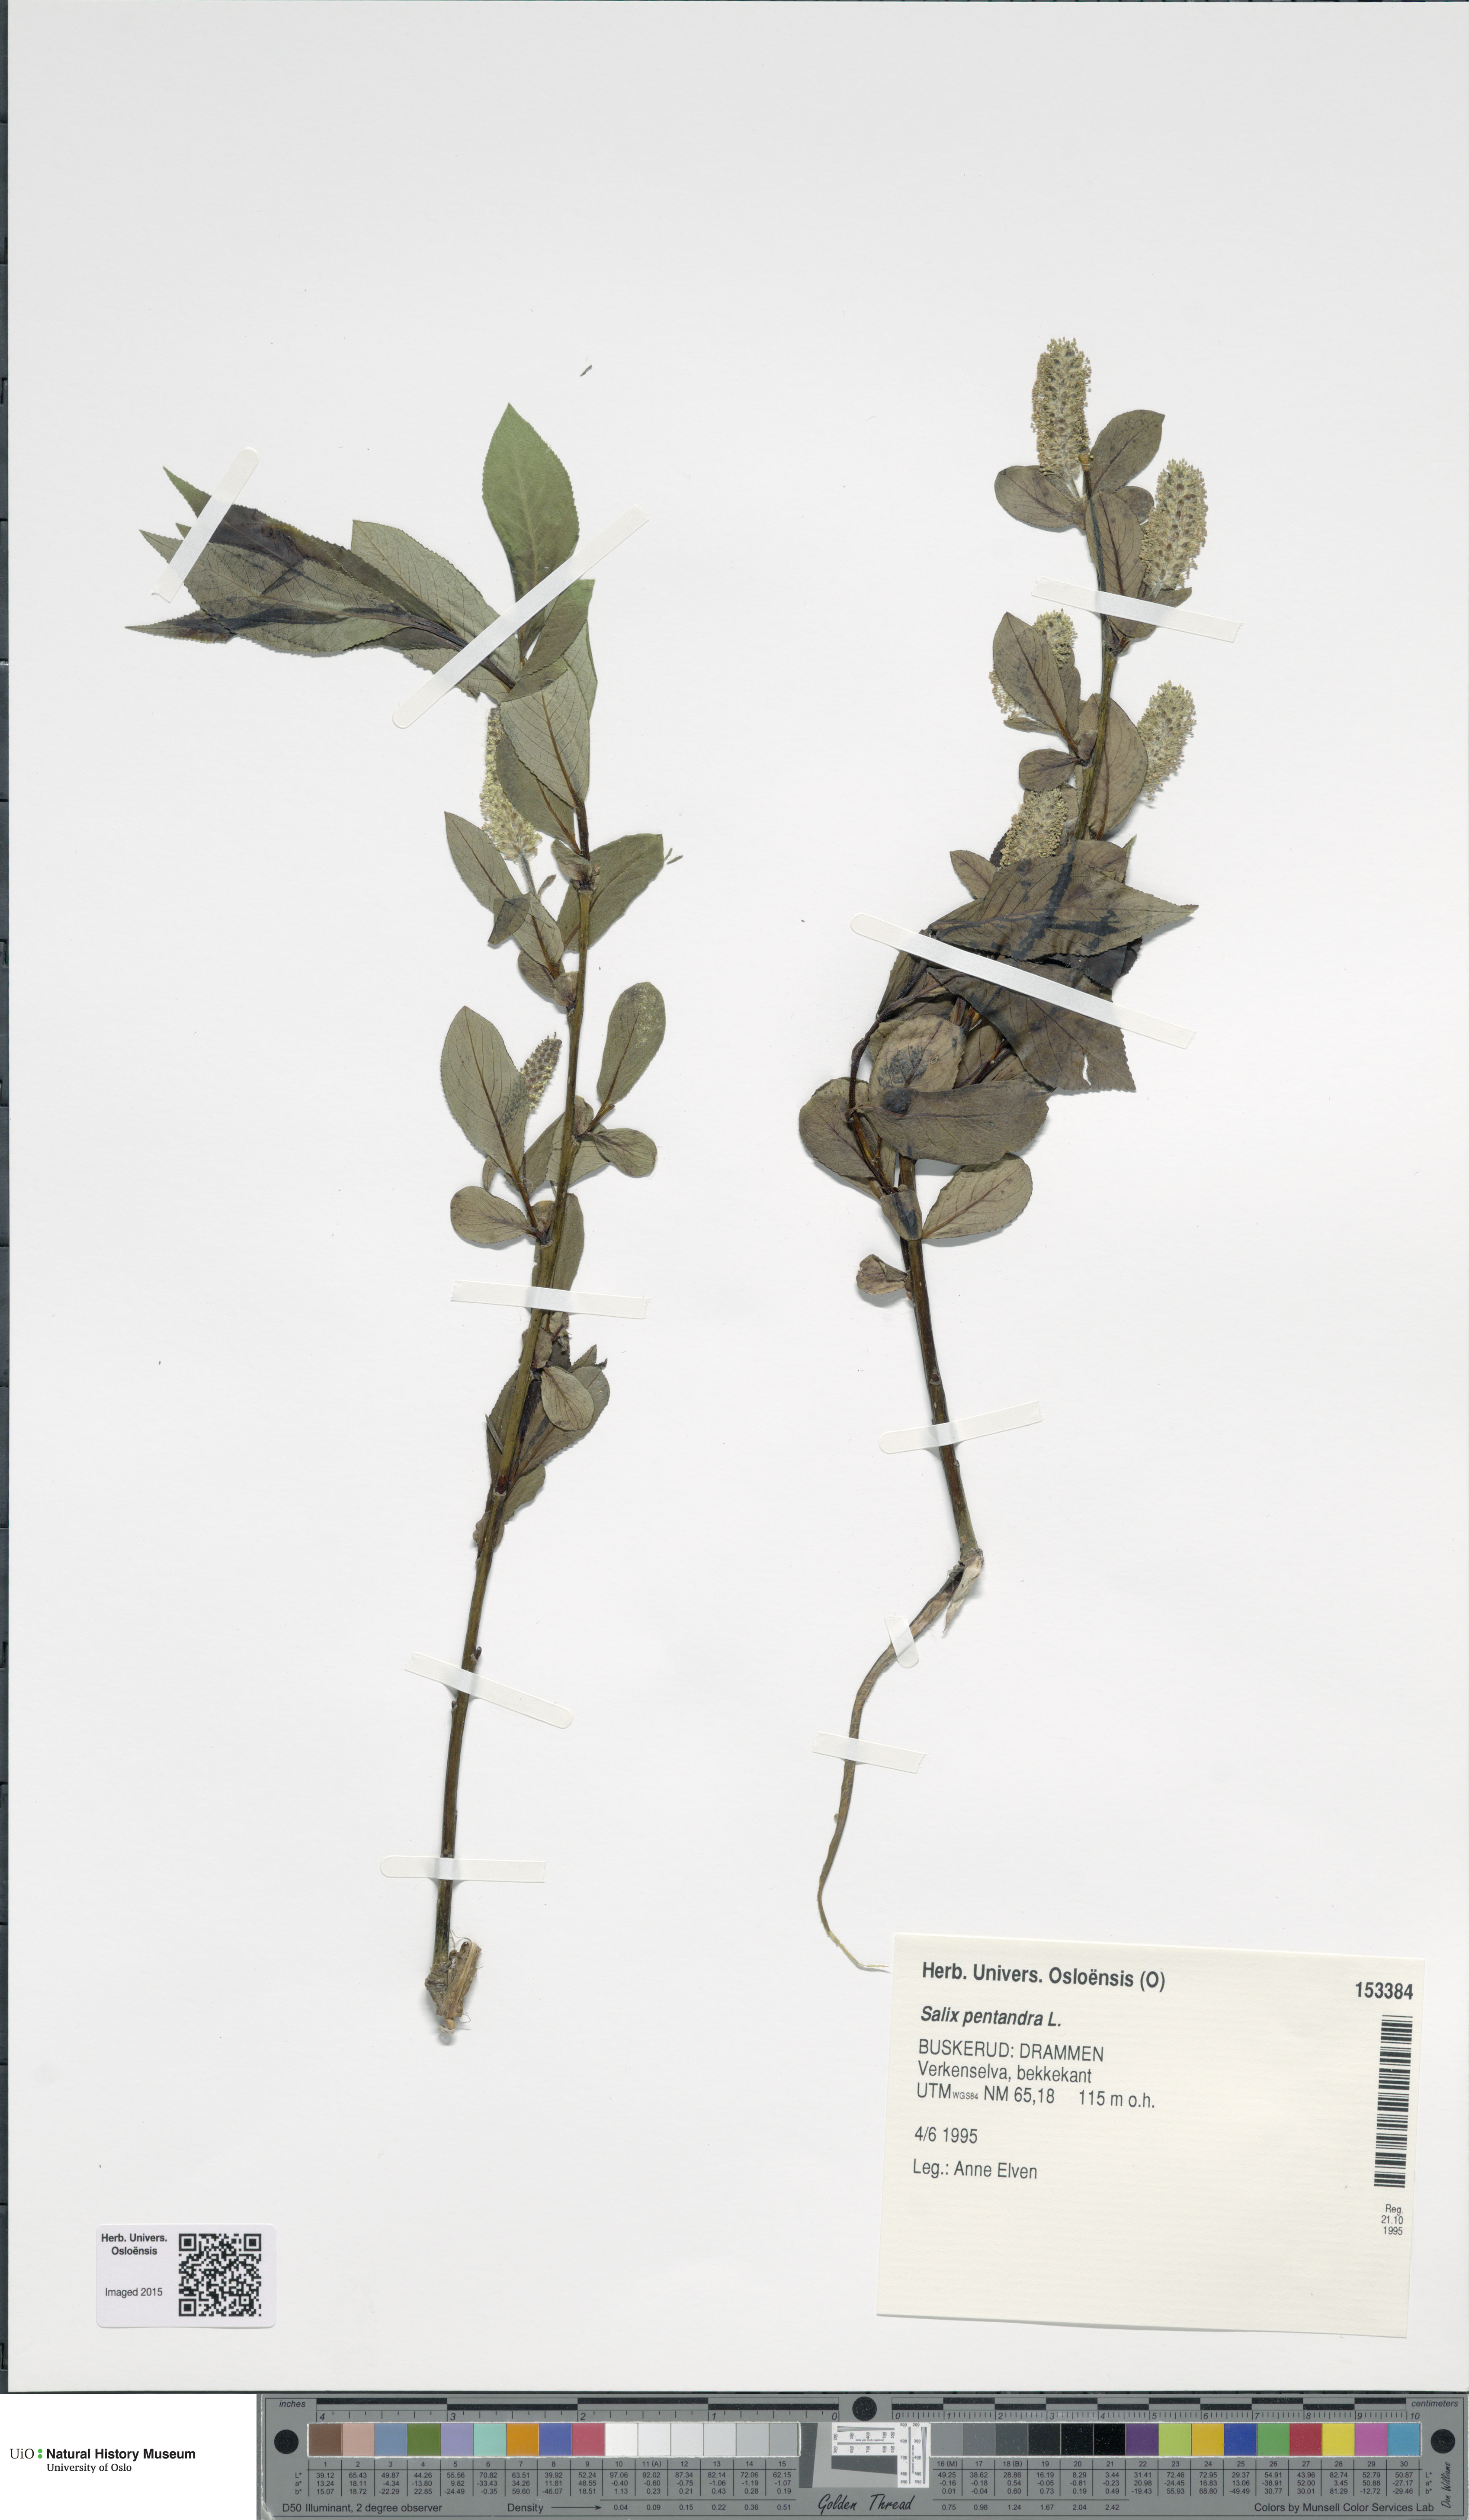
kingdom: Plantae
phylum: Tracheophyta
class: Magnoliopsida
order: Malpighiales
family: Salicaceae
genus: Salix
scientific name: Salix pentandra
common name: Bay willow
